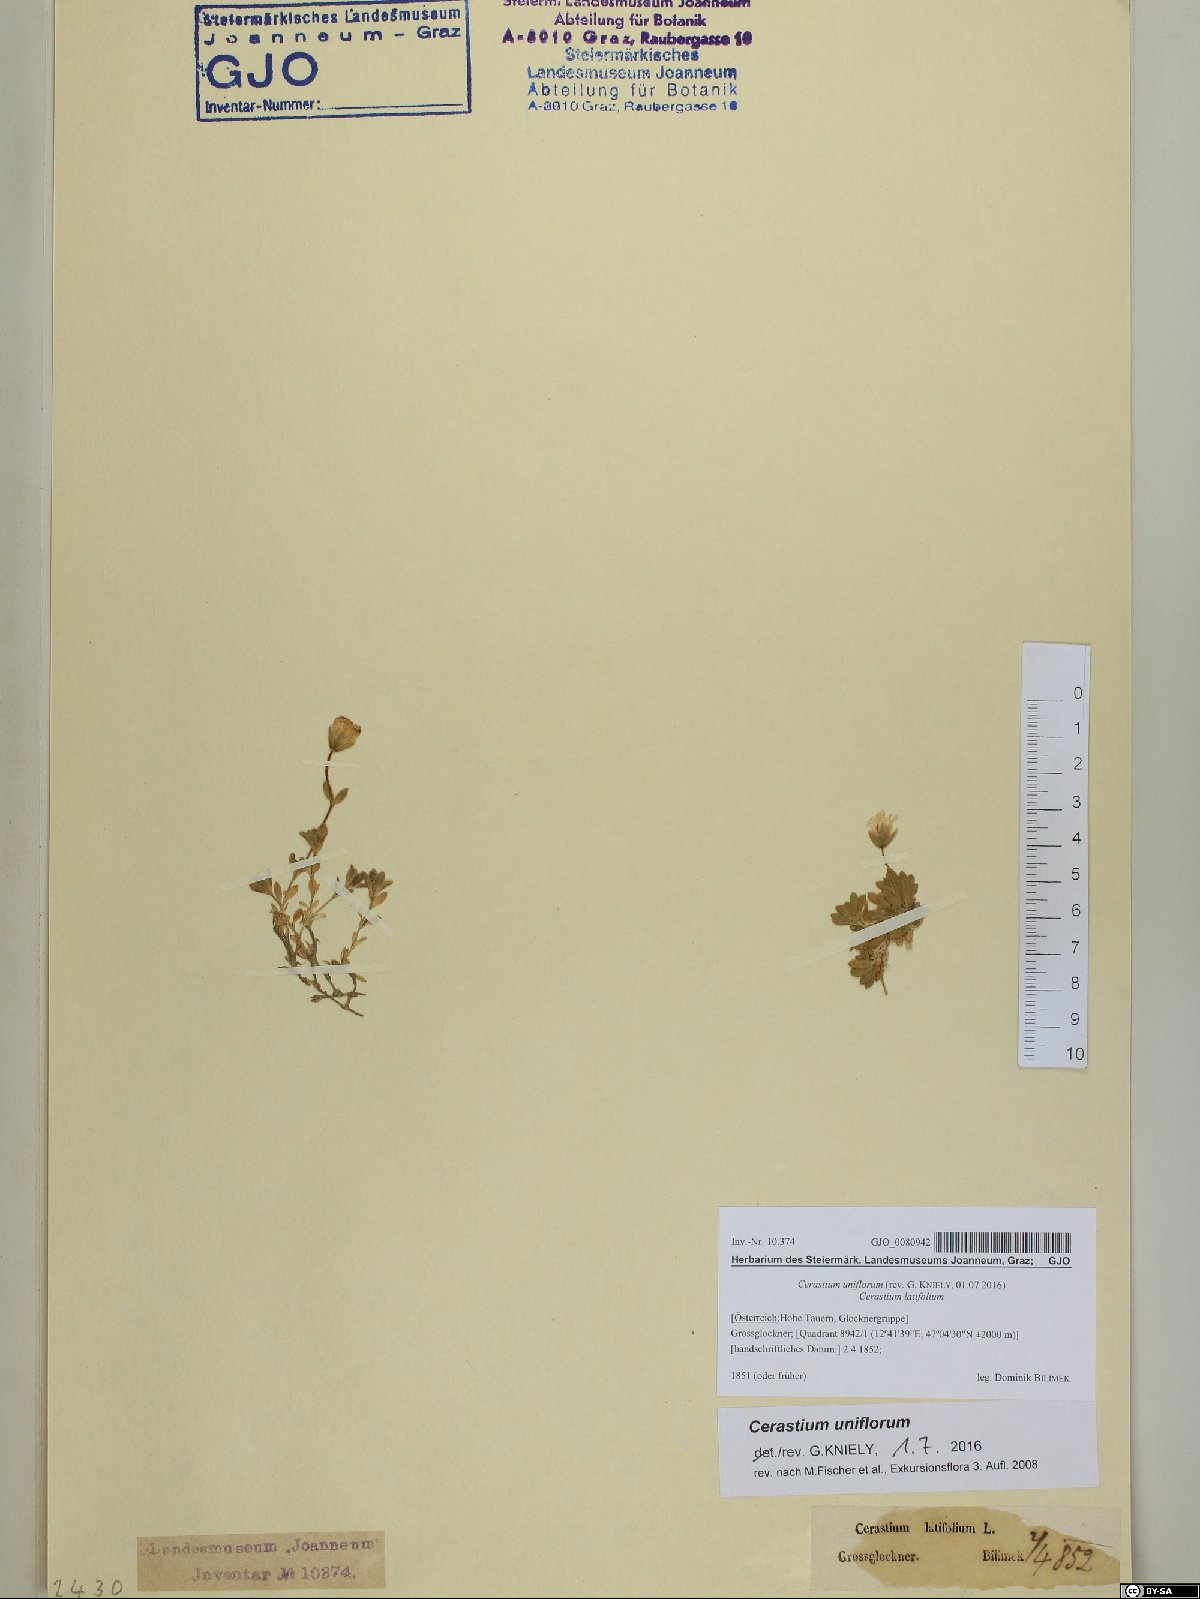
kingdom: Plantae
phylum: Tracheophyta
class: Magnoliopsida
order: Caryophyllales
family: Caryophyllaceae
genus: Cerastium
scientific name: Cerastium uniflorum
